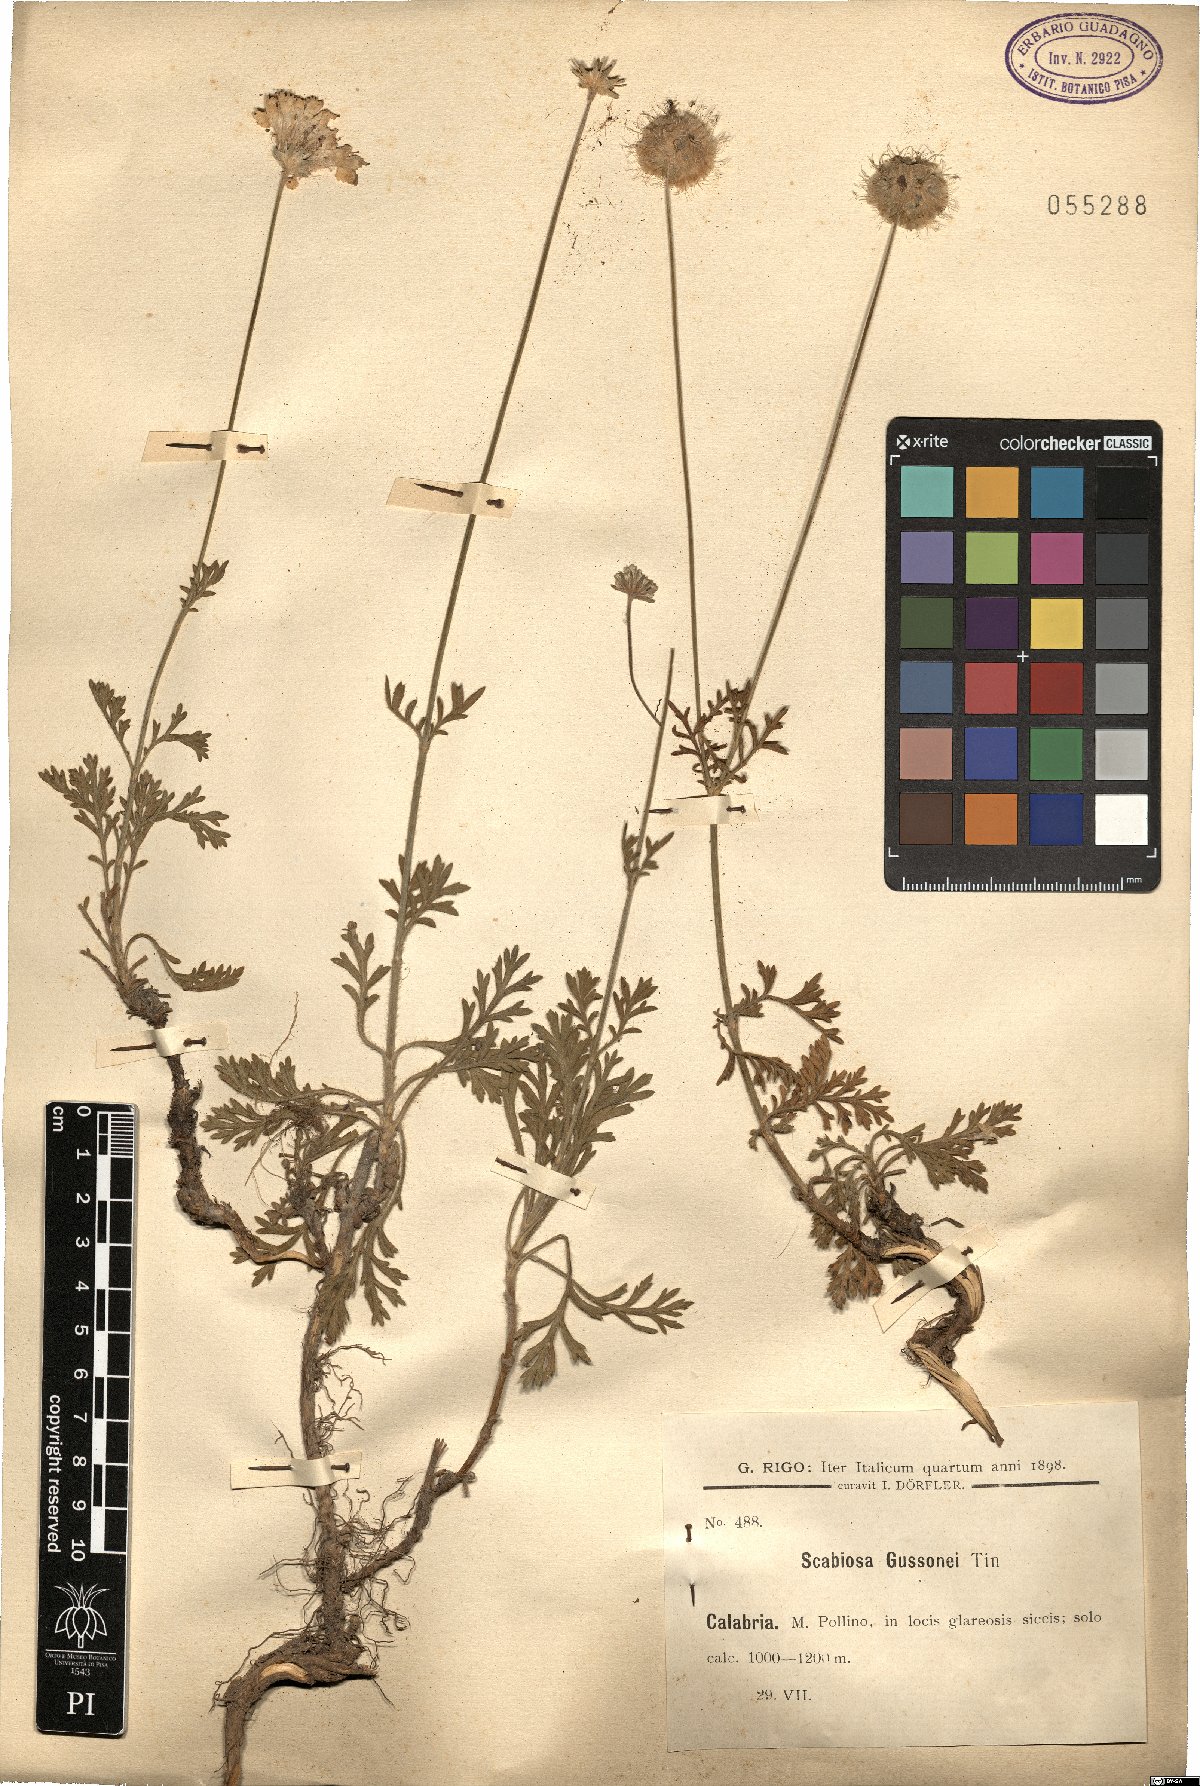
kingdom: Plantae
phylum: Tracheophyta
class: Magnoliopsida
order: Dipsacales
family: Caprifoliaceae
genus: Lomelosia
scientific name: Lomelosia crenata
